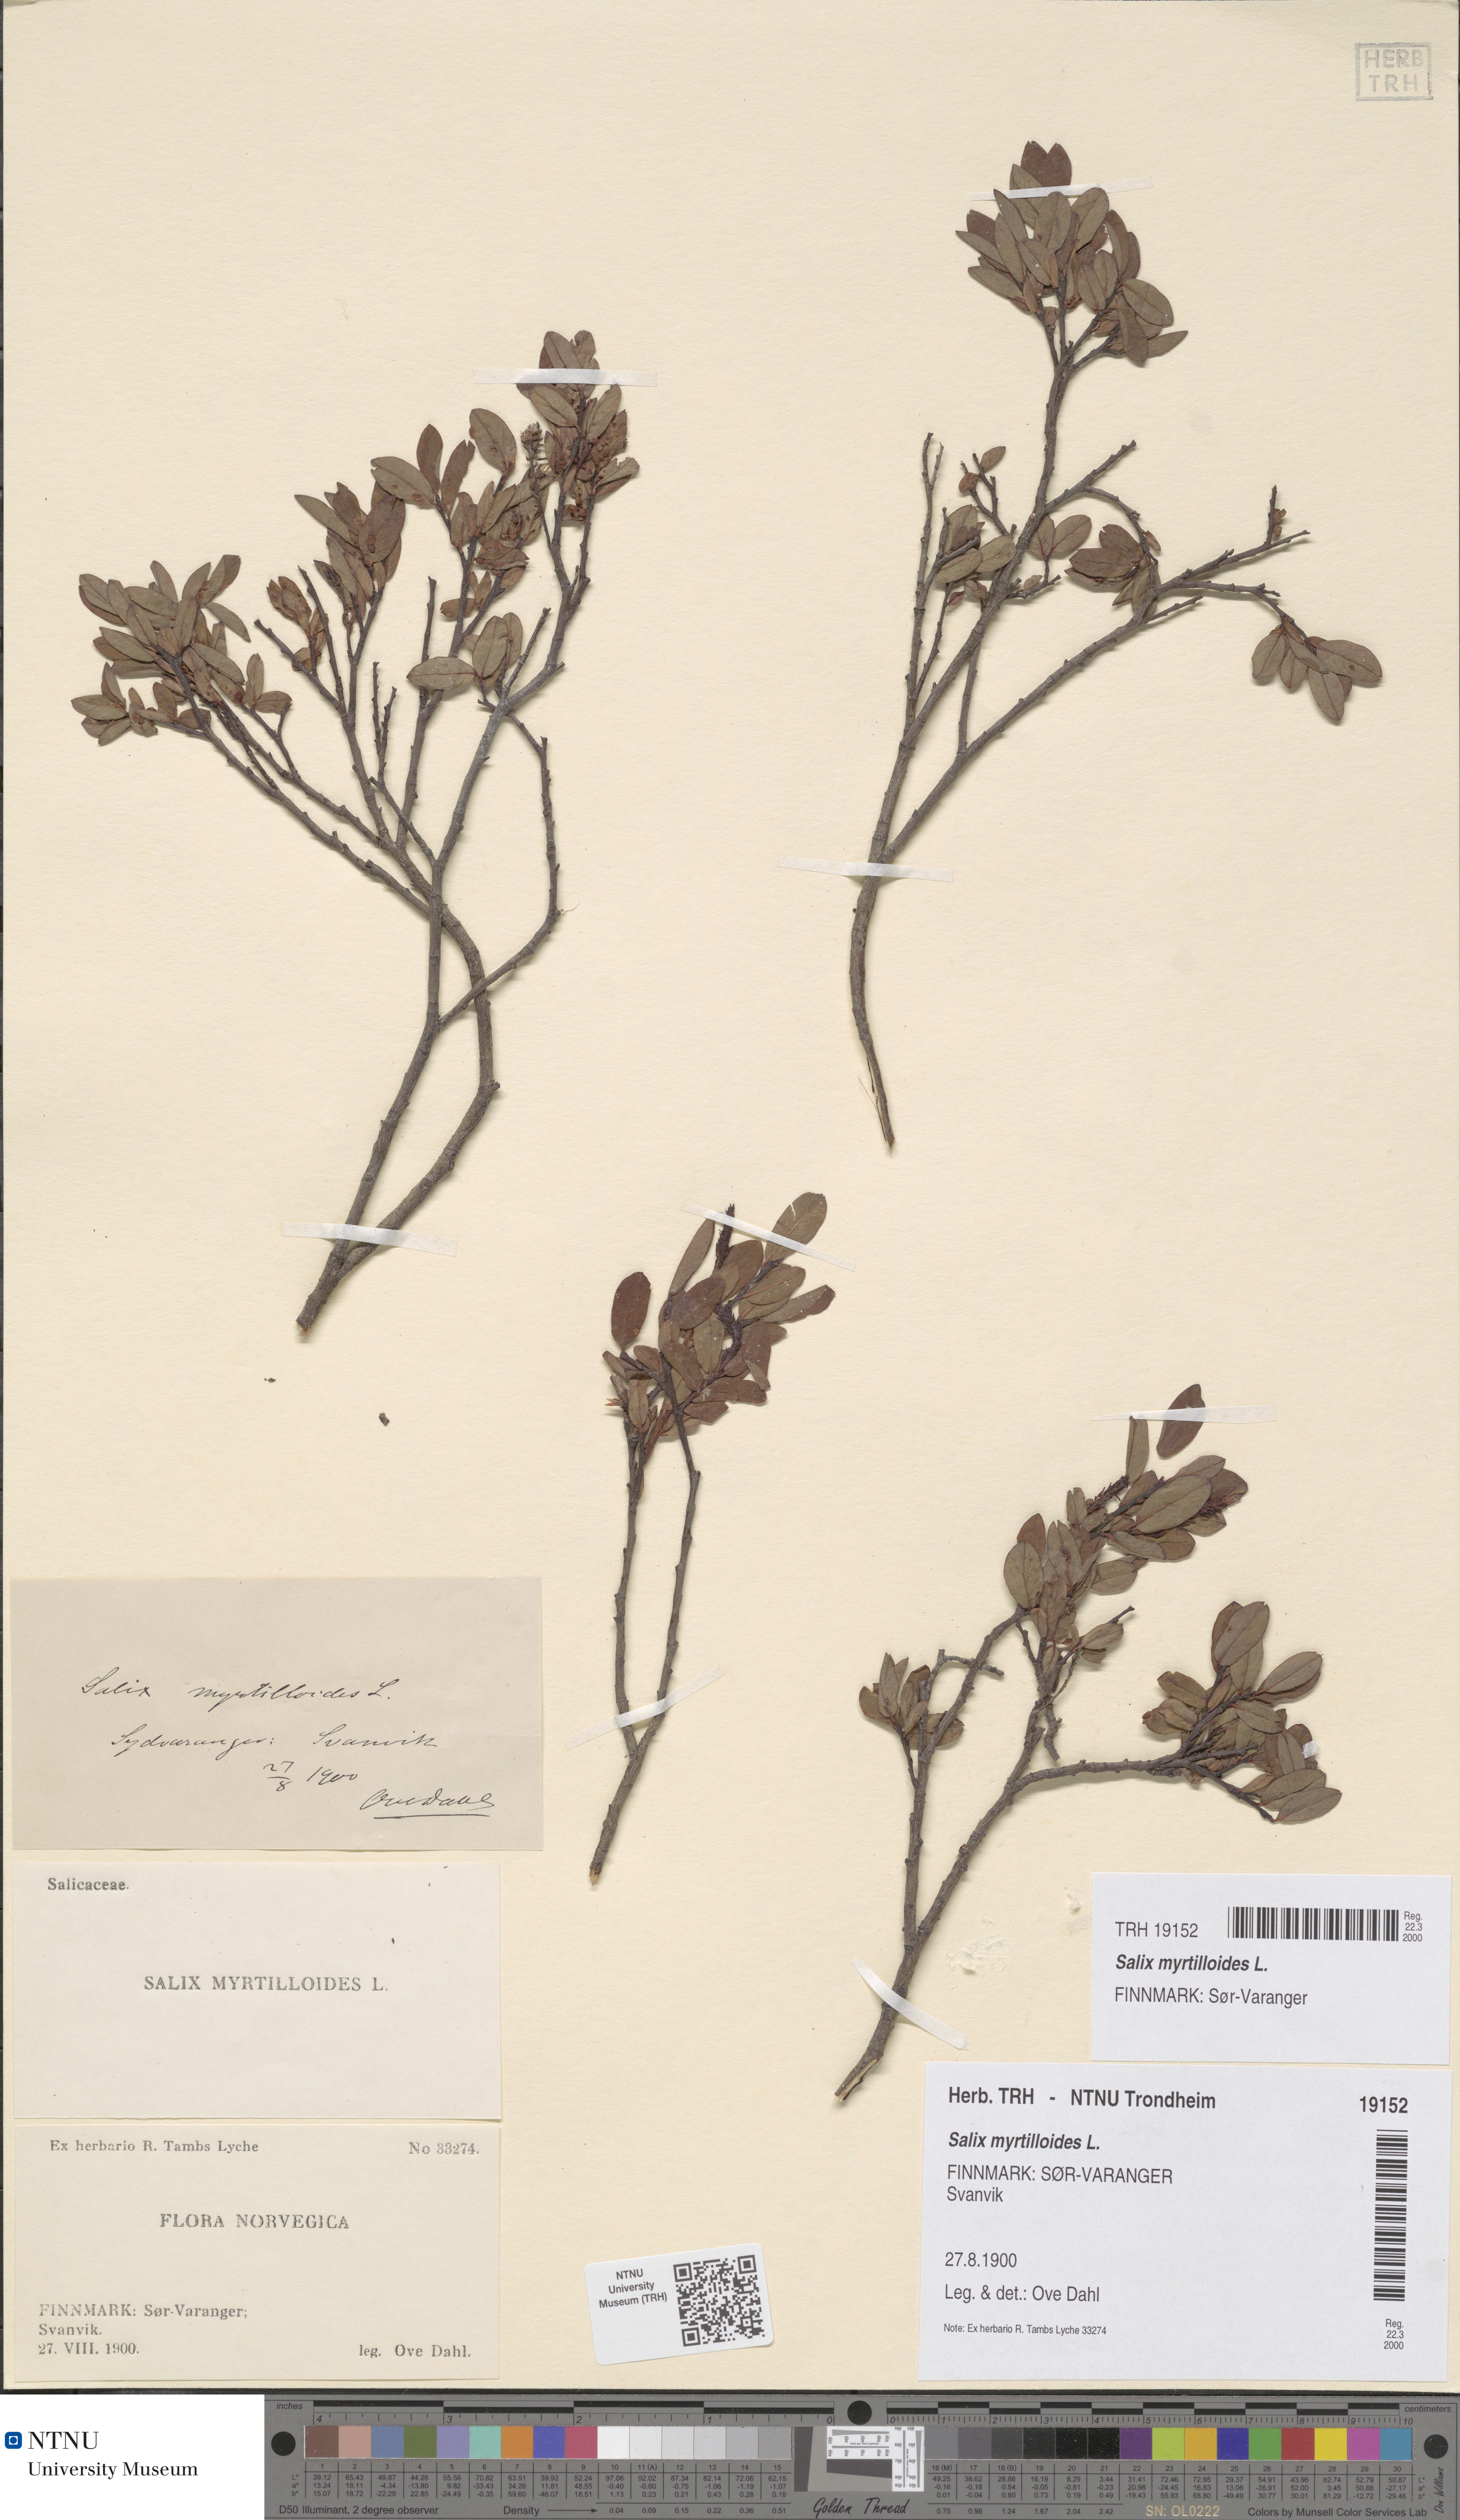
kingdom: Plantae
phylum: Tracheophyta
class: Magnoliopsida
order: Malpighiales
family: Salicaceae
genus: Salix
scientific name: Salix myrtilloides
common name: Myrtle-leaved willow
